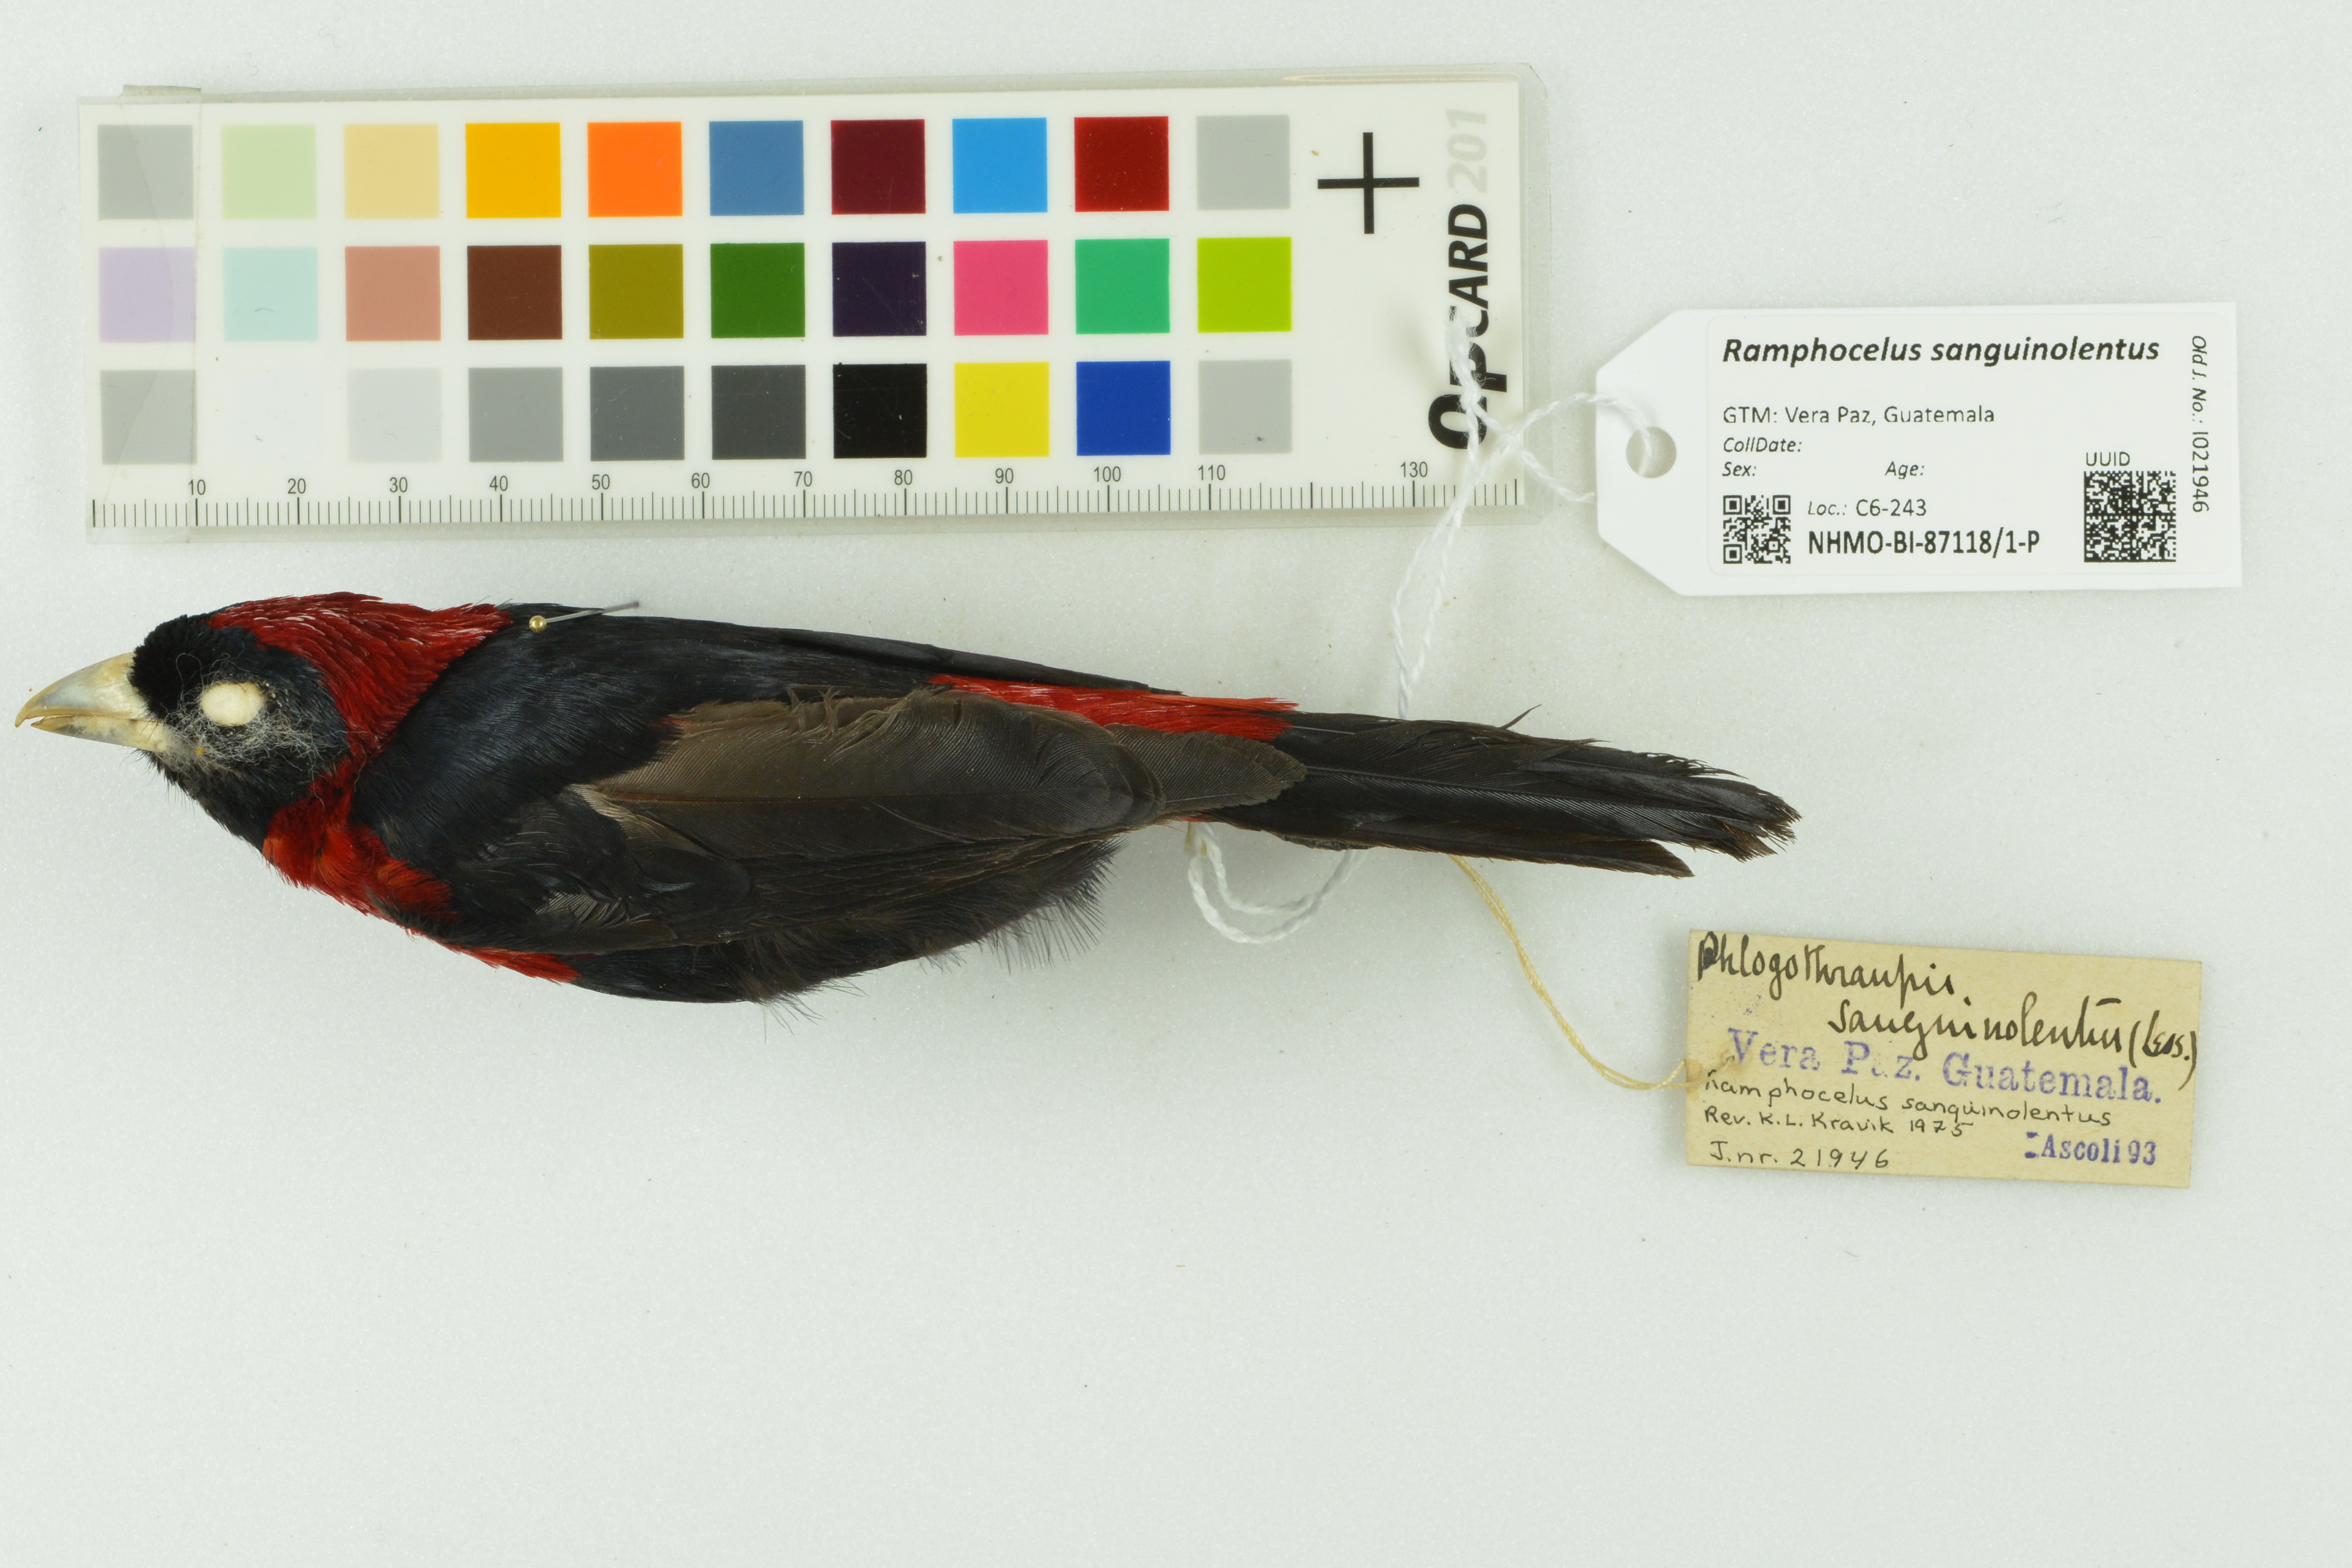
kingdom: Animalia
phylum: Chordata
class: Aves
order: Passeriformes
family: Thraupidae
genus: Ramphocelus
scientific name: Ramphocelus sanguinolentus
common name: Crimson-collared tanager
